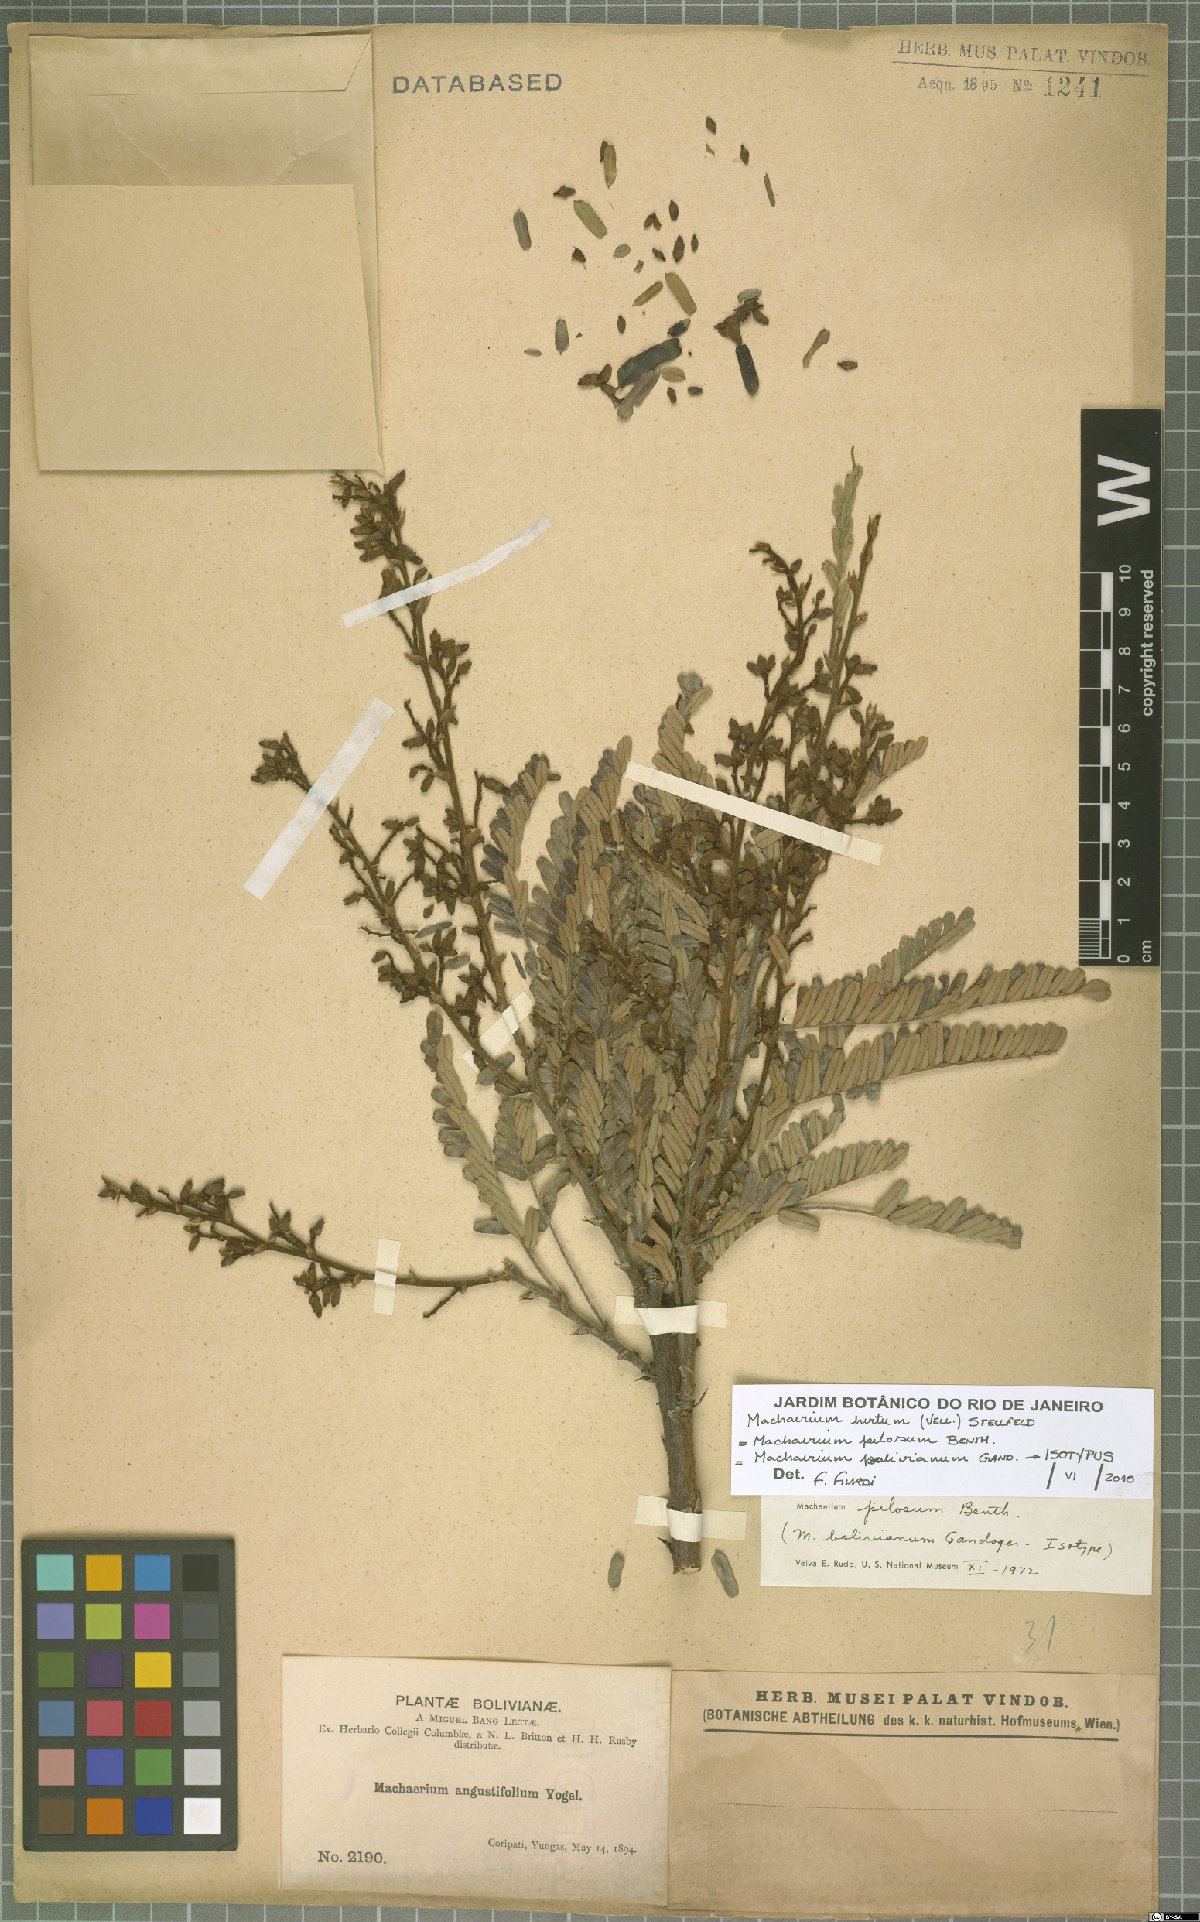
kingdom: Plantae
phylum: Tracheophyta
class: Magnoliopsida
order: Fabales
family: Fabaceae
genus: Machaerium
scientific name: Machaerium hirtum
